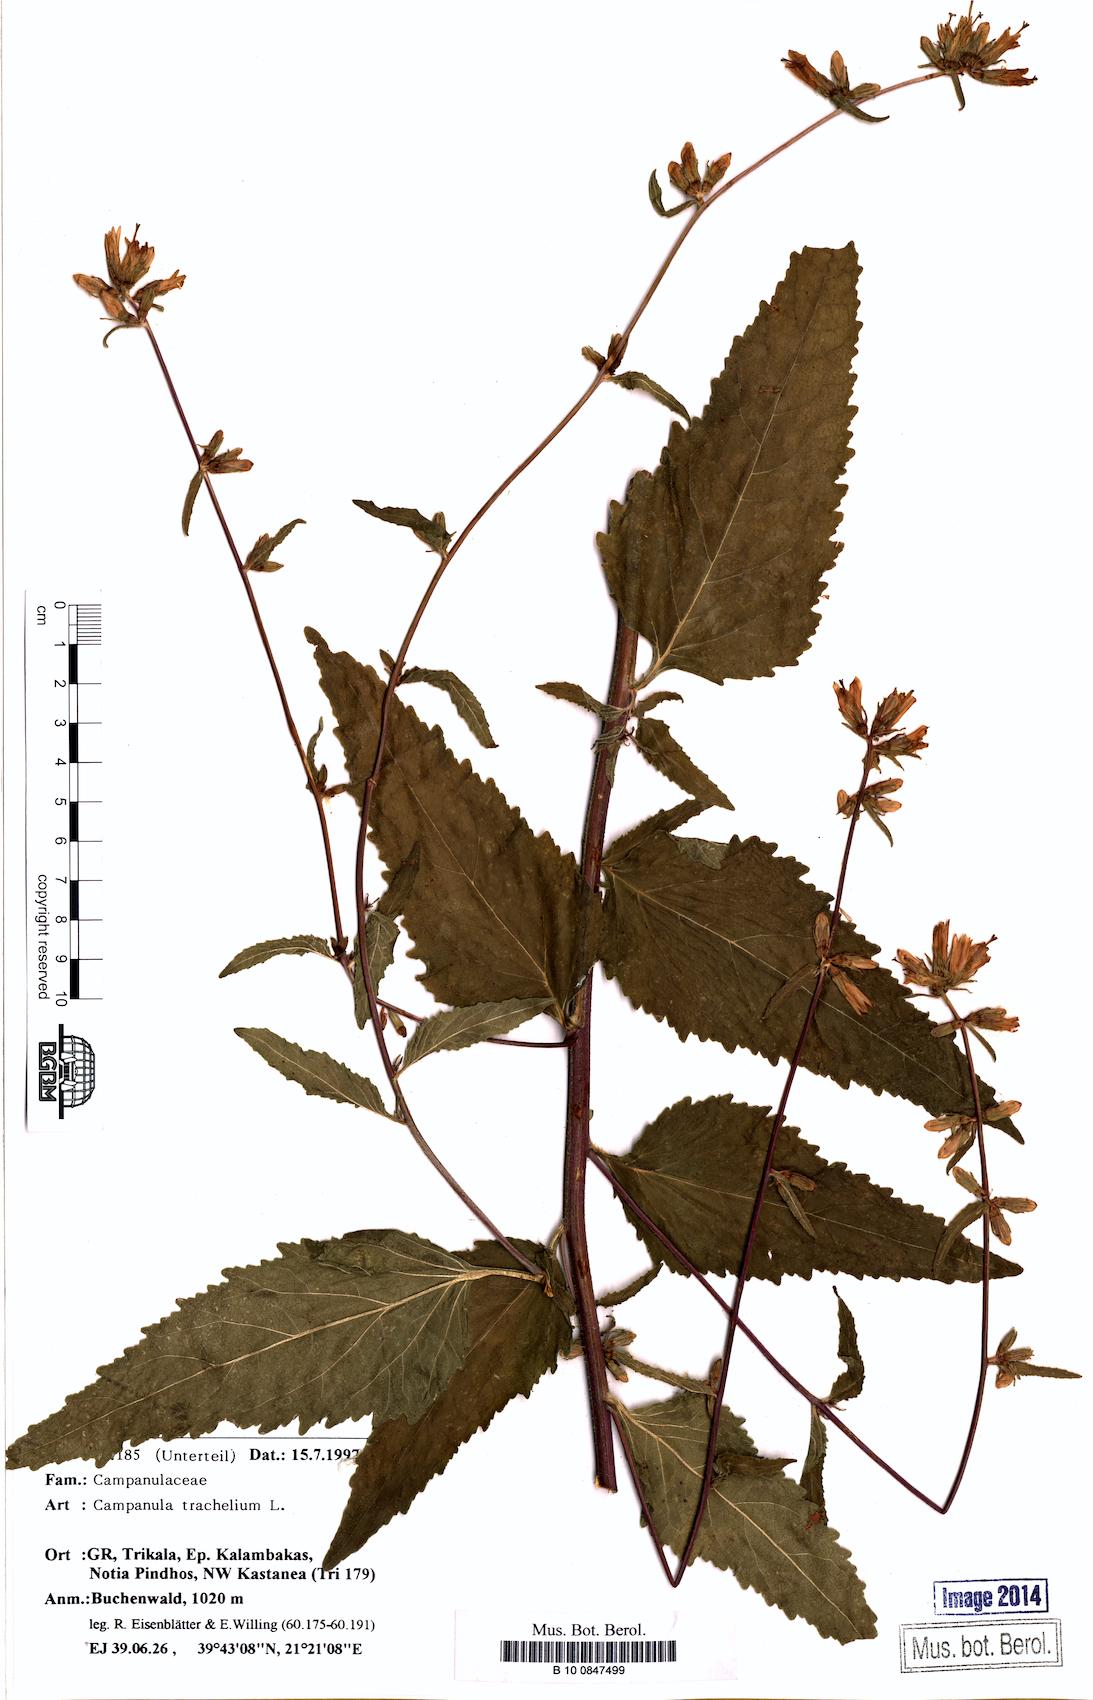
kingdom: Plantae
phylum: Tracheophyta
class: Magnoliopsida
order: Asterales
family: Campanulaceae
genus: Campanula
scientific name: Campanula trachelium
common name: Nettle-leaved bellflower
